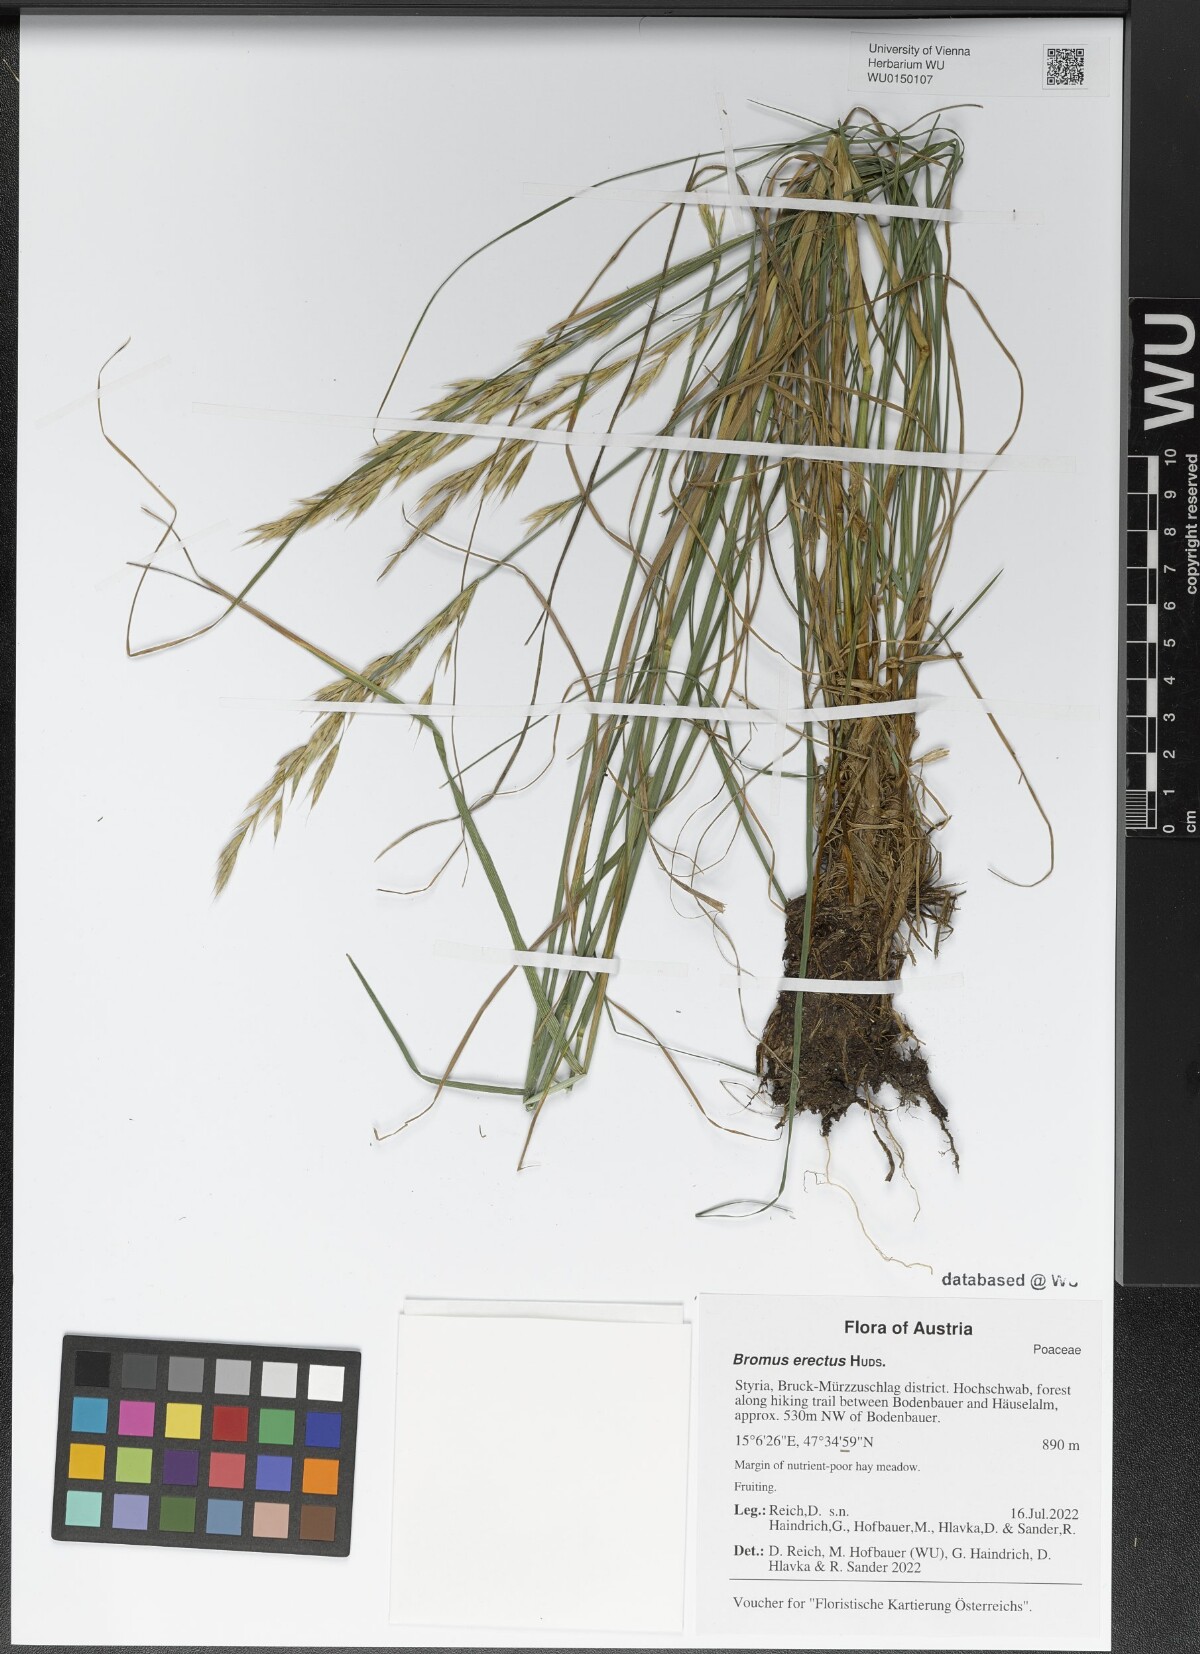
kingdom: Plantae
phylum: Tracheophyta
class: Liliopsida
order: Poales
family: Poaceae
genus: Bromus
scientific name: Bromus erectus
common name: Erect brome
